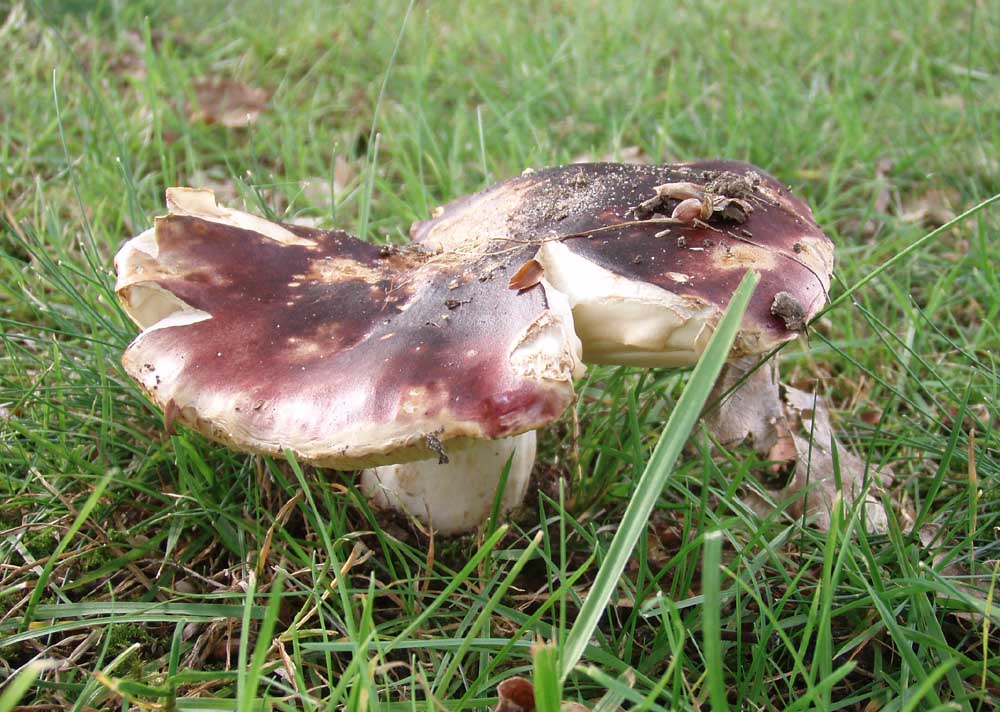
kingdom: Fungi
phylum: Basidiomycota
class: Agaricomycetes
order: Russulales
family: Russulaceae
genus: Russula
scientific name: Russula atropurpurea
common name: purpurbroget skørhat
